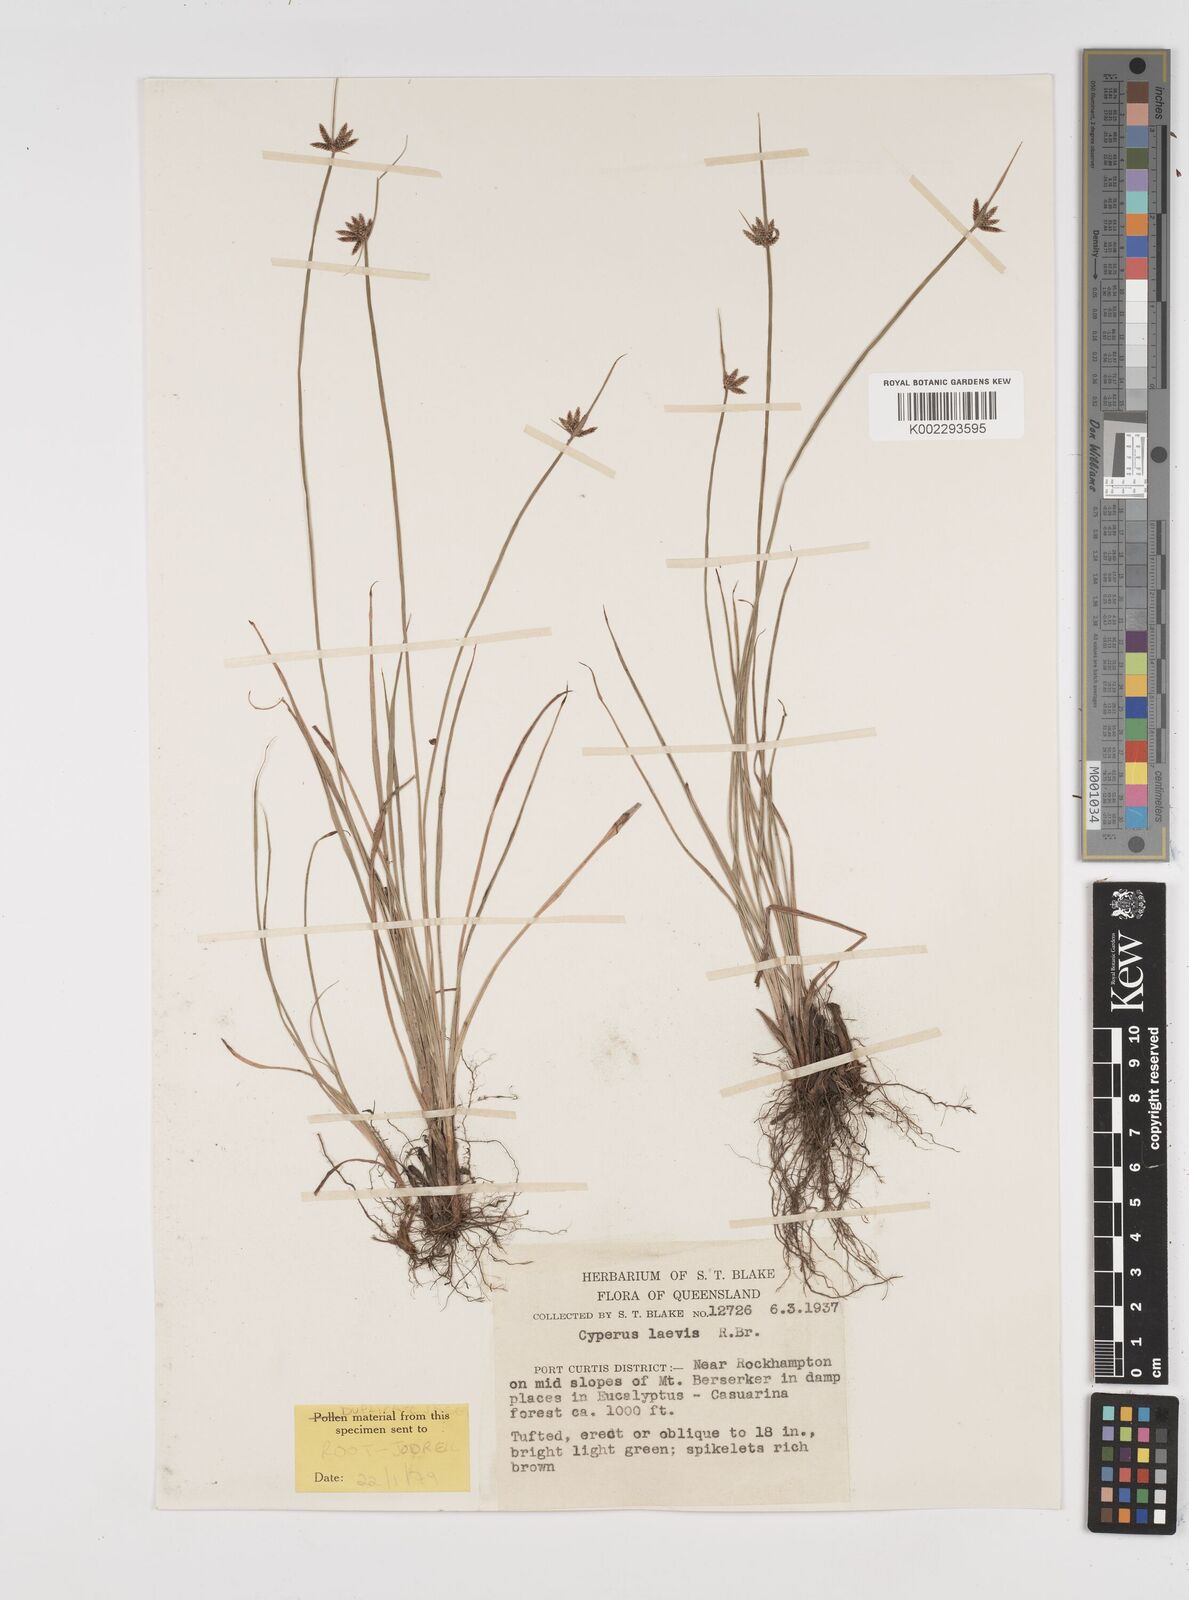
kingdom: Plantae
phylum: Tracheophyta
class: Liliopsida
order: Poales
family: Cyperaceae
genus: Cyperus
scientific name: Cyperus laevis
